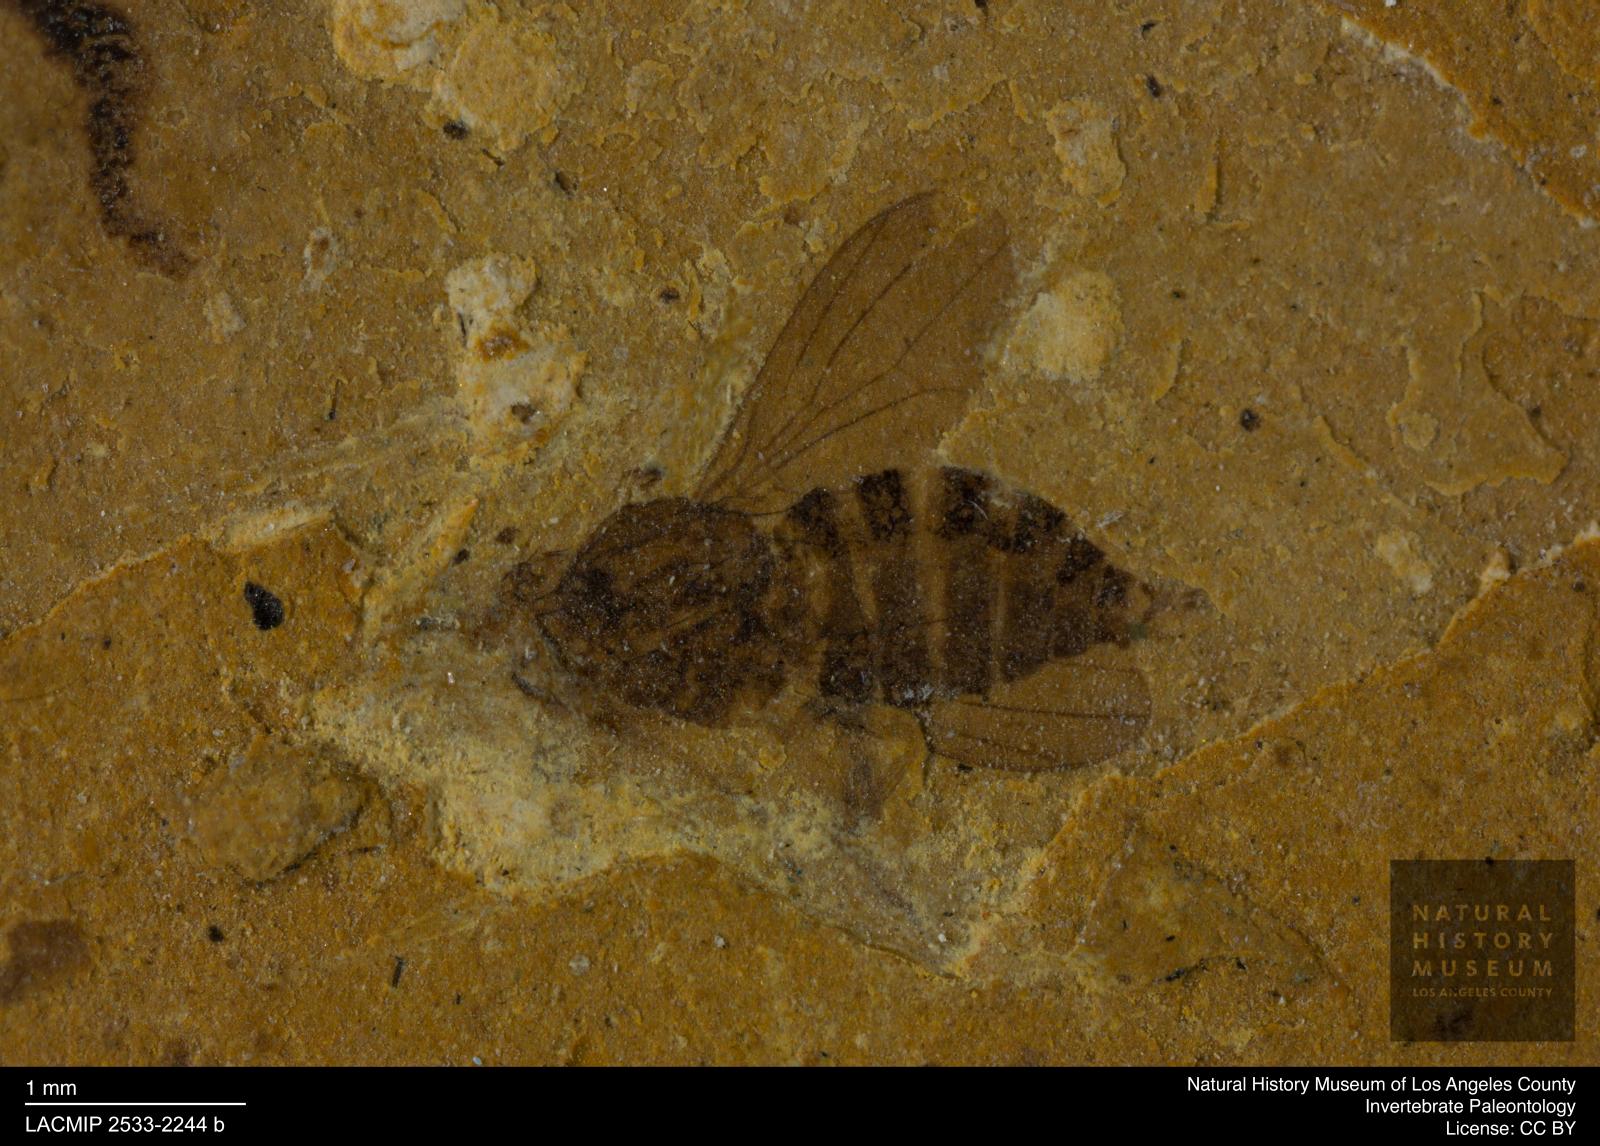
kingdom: Animalia
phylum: Arthropoda
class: Insecta
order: Diptera
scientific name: Diptera
